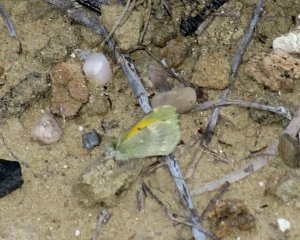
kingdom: Animalia
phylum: Arthropoda
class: Insecta
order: Lepidoptera
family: Pieridae
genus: Nathalis
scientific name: Nathalis iole
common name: Dainty Sulphur
